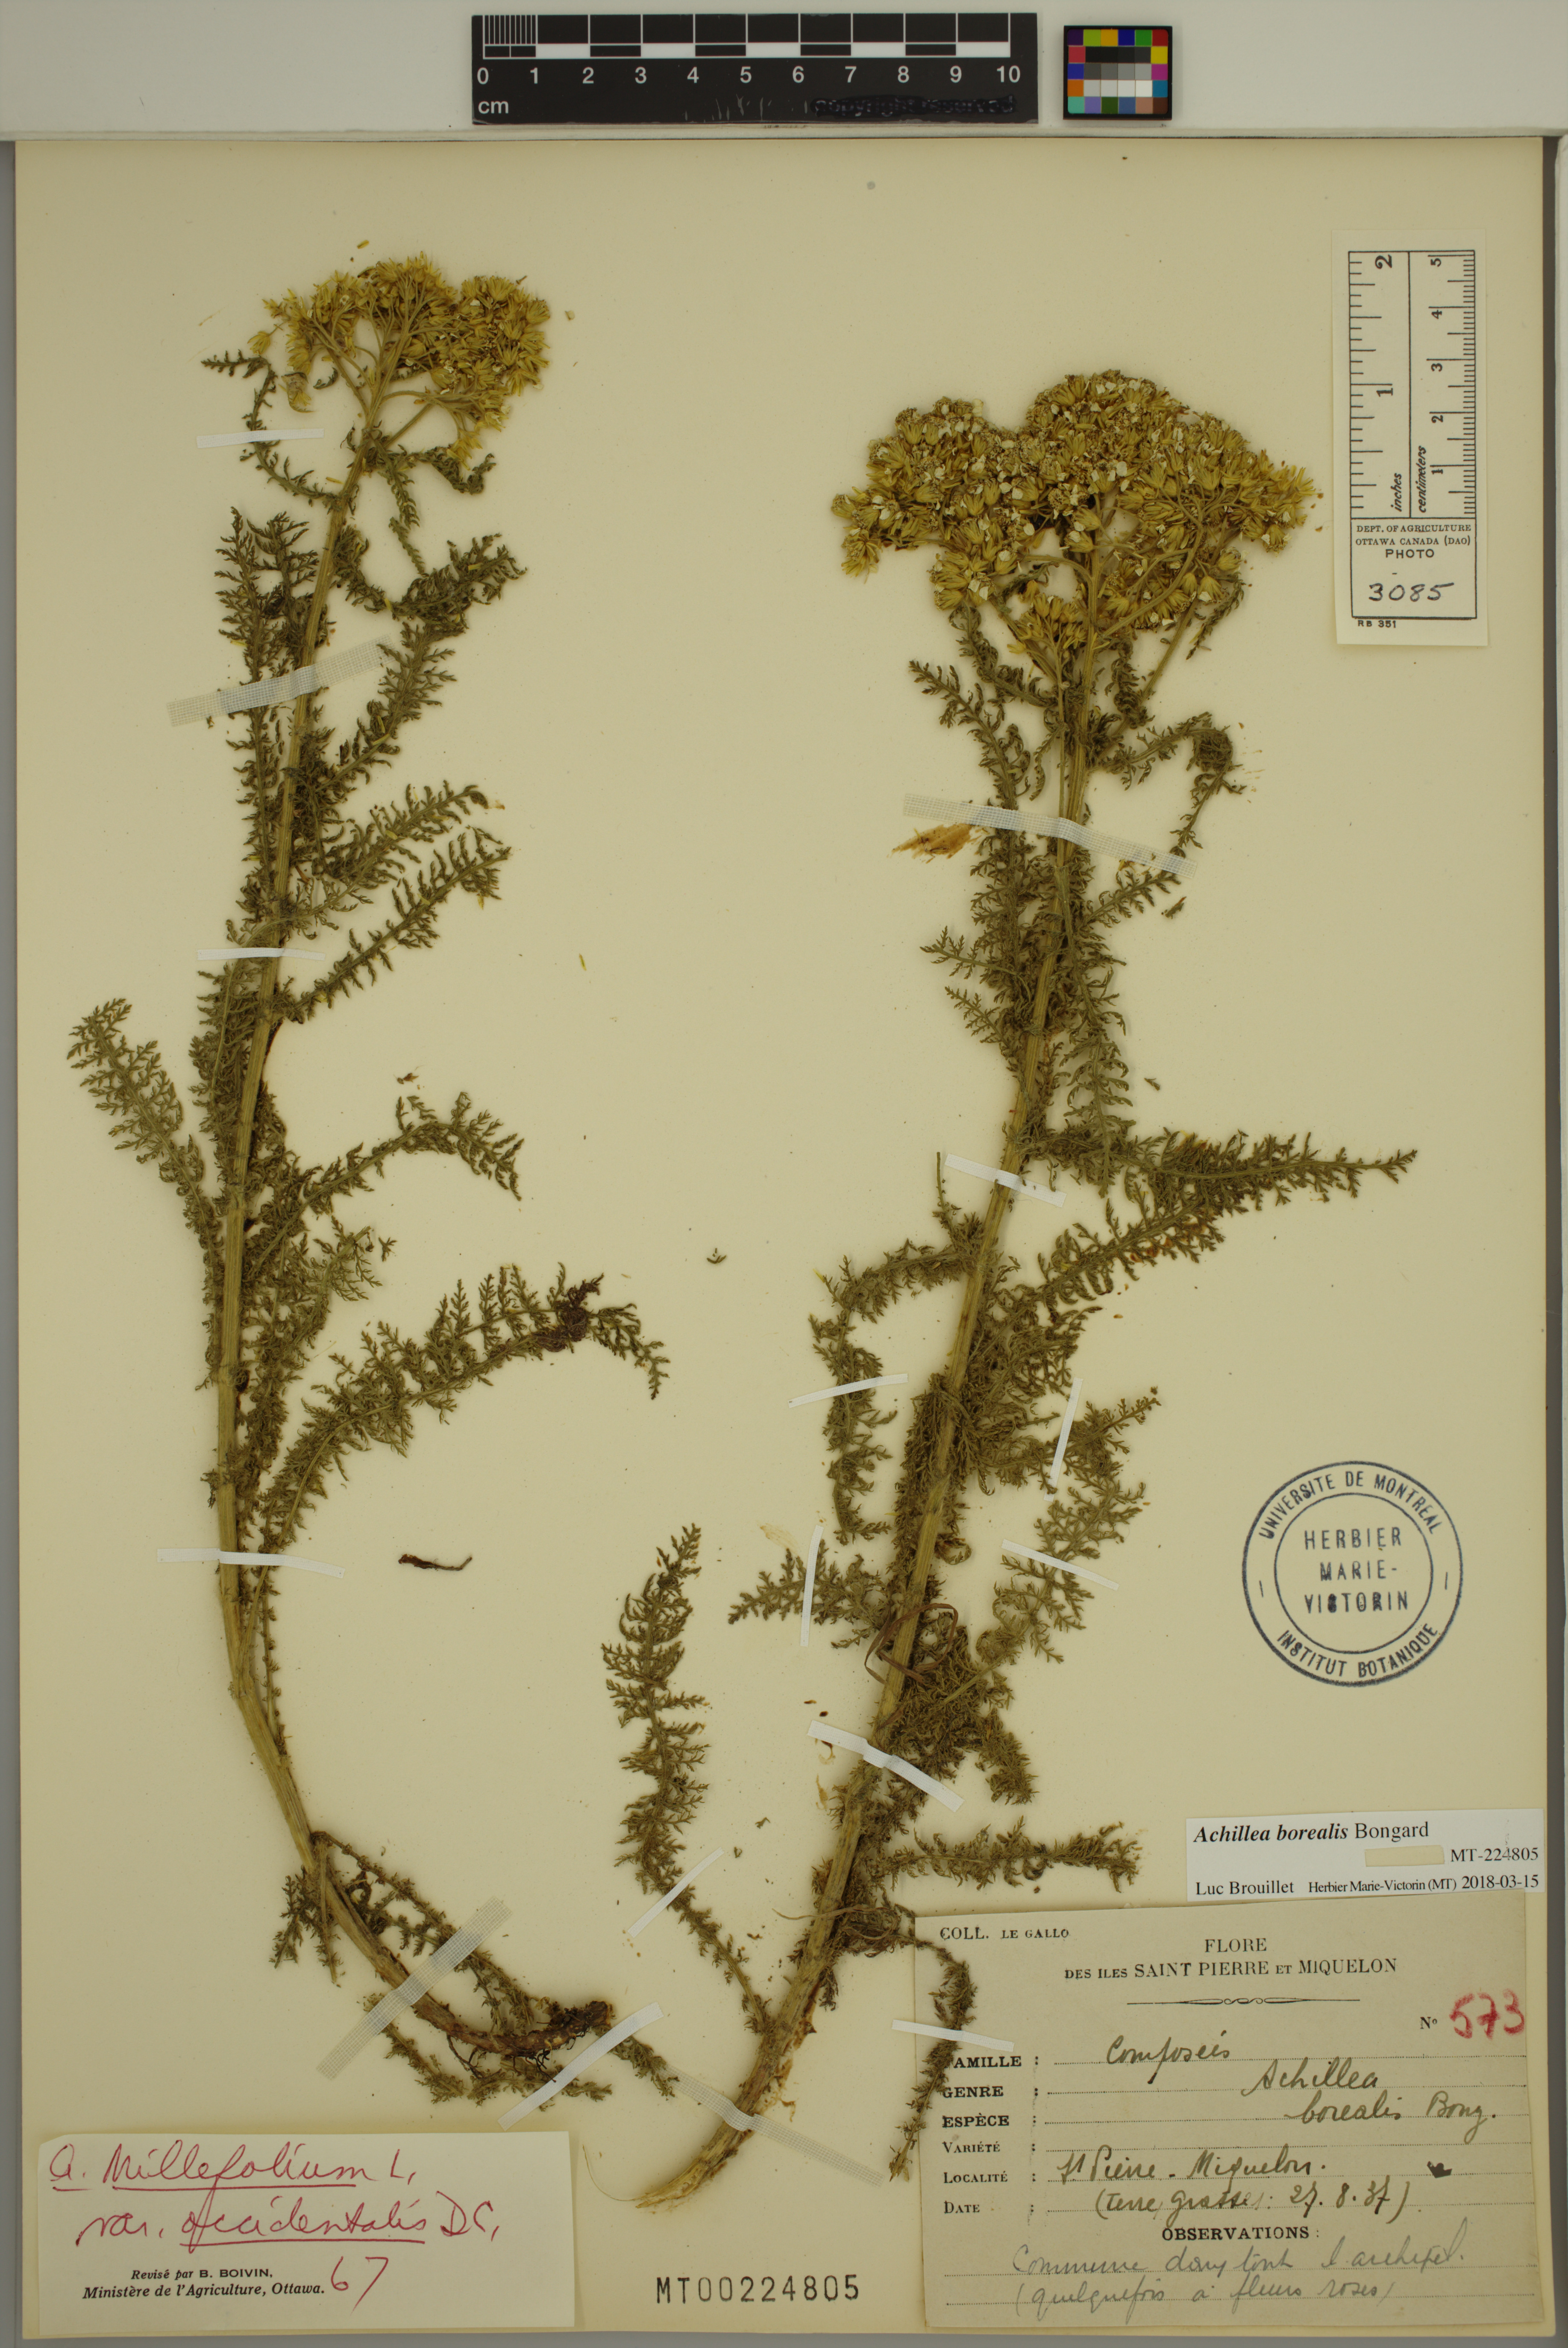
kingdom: Plantae
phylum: Tracheophyta
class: Magnoliopsida
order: Asterales
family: Asteraceae
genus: Achillea
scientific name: Achillea millefolium
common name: Yarrow
